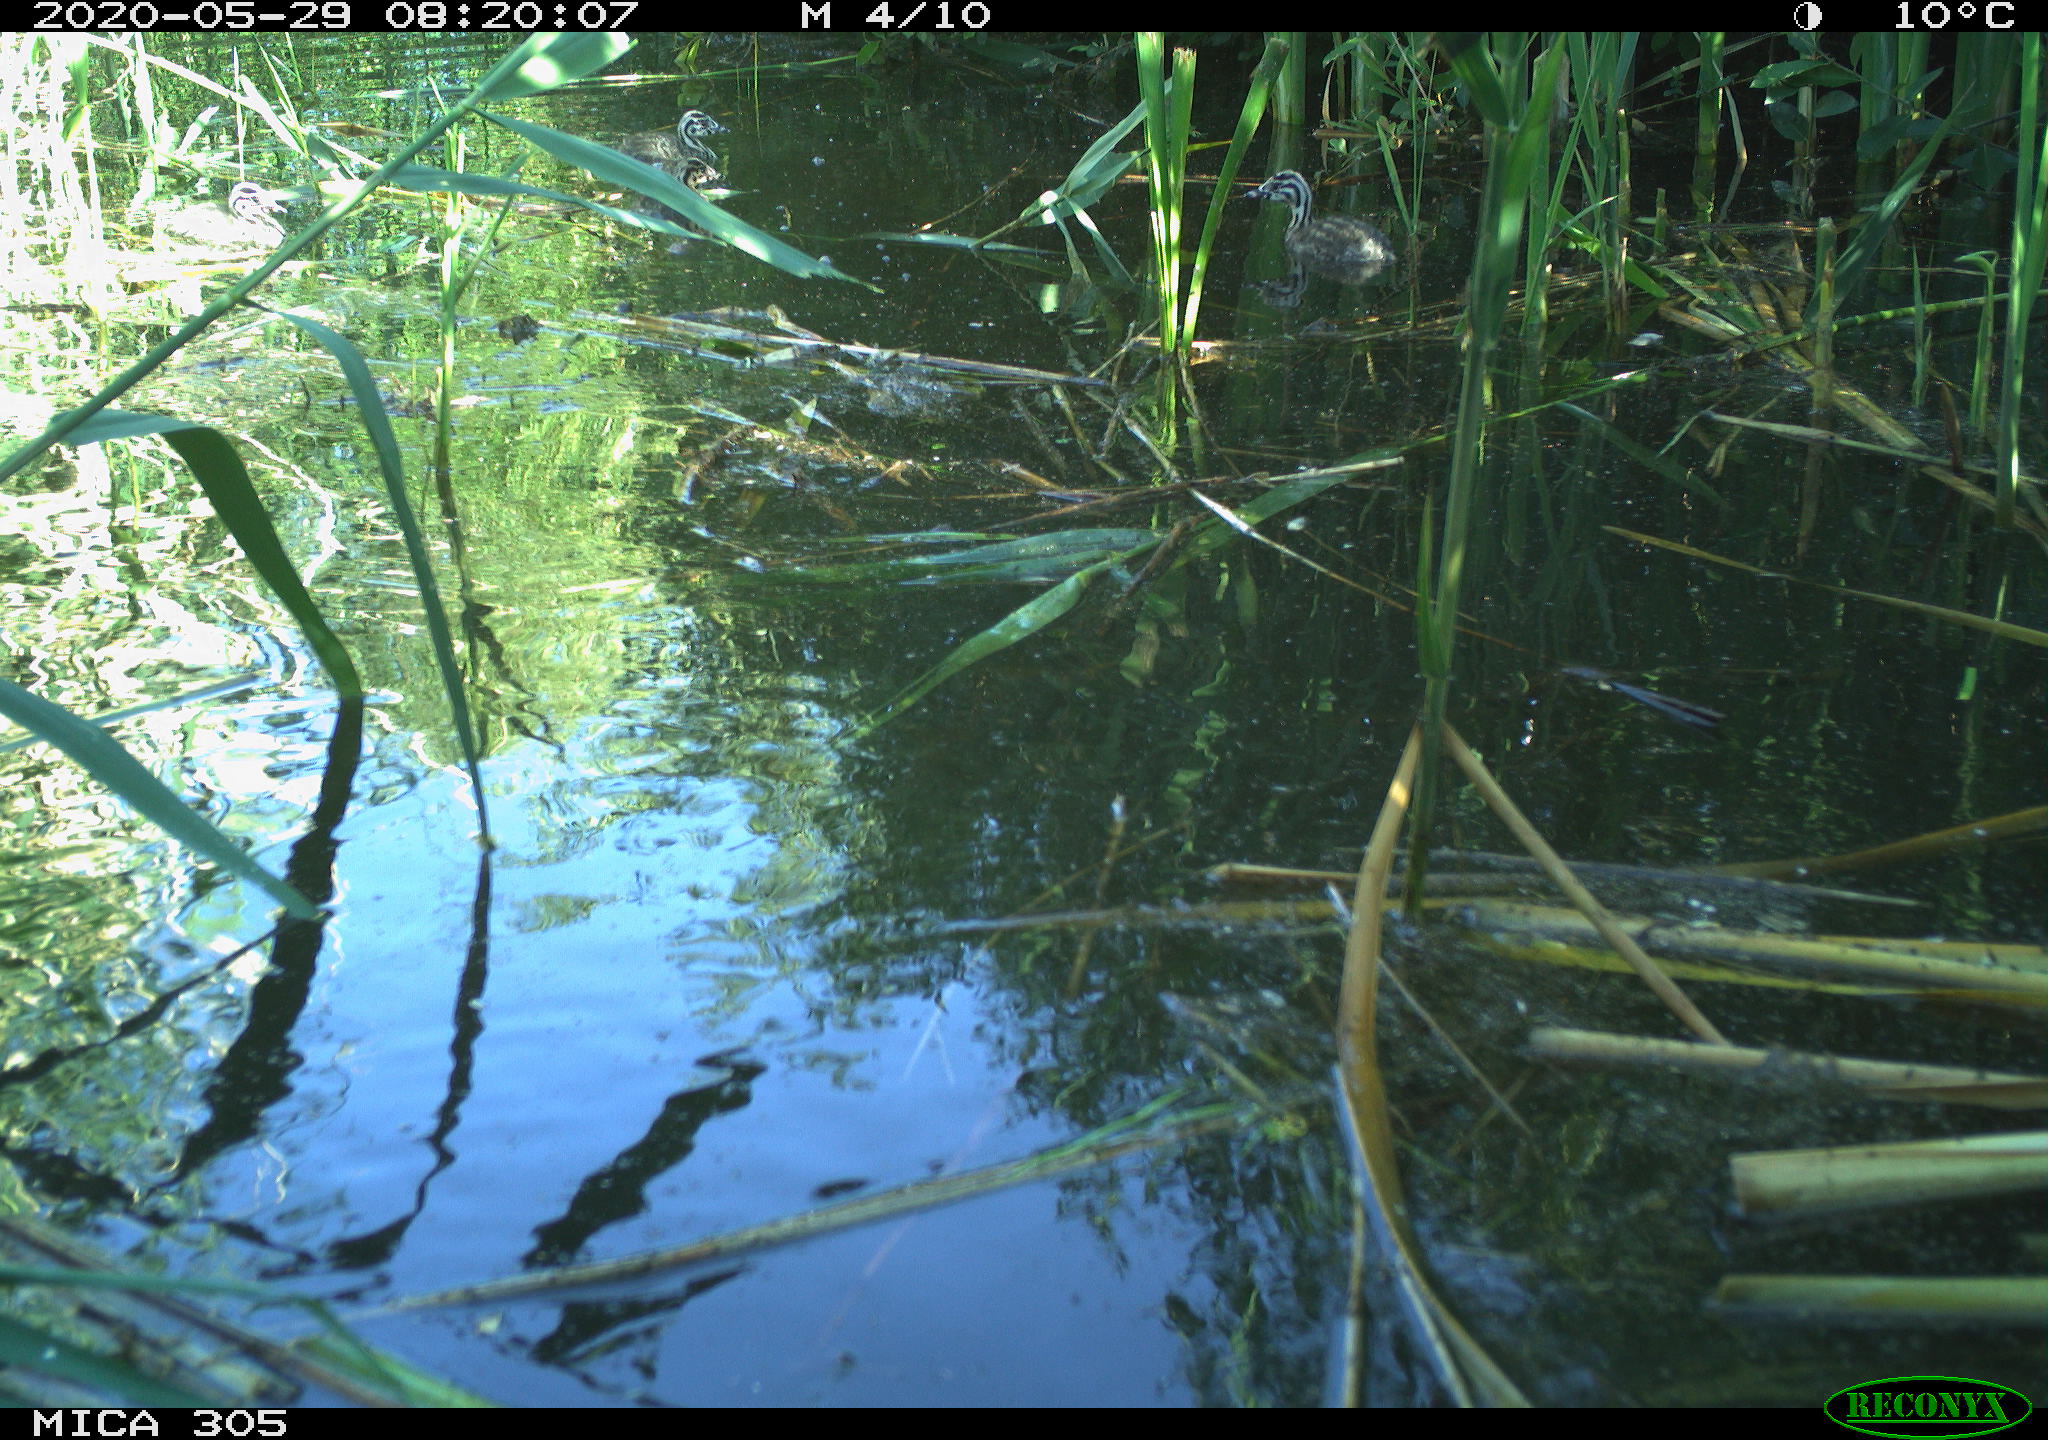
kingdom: Animalia
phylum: Chordata
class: Aves
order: Podicipediformes
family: Podicipedidae
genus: Podiceps
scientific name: Podiceps cristatus
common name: Great crested grebe
